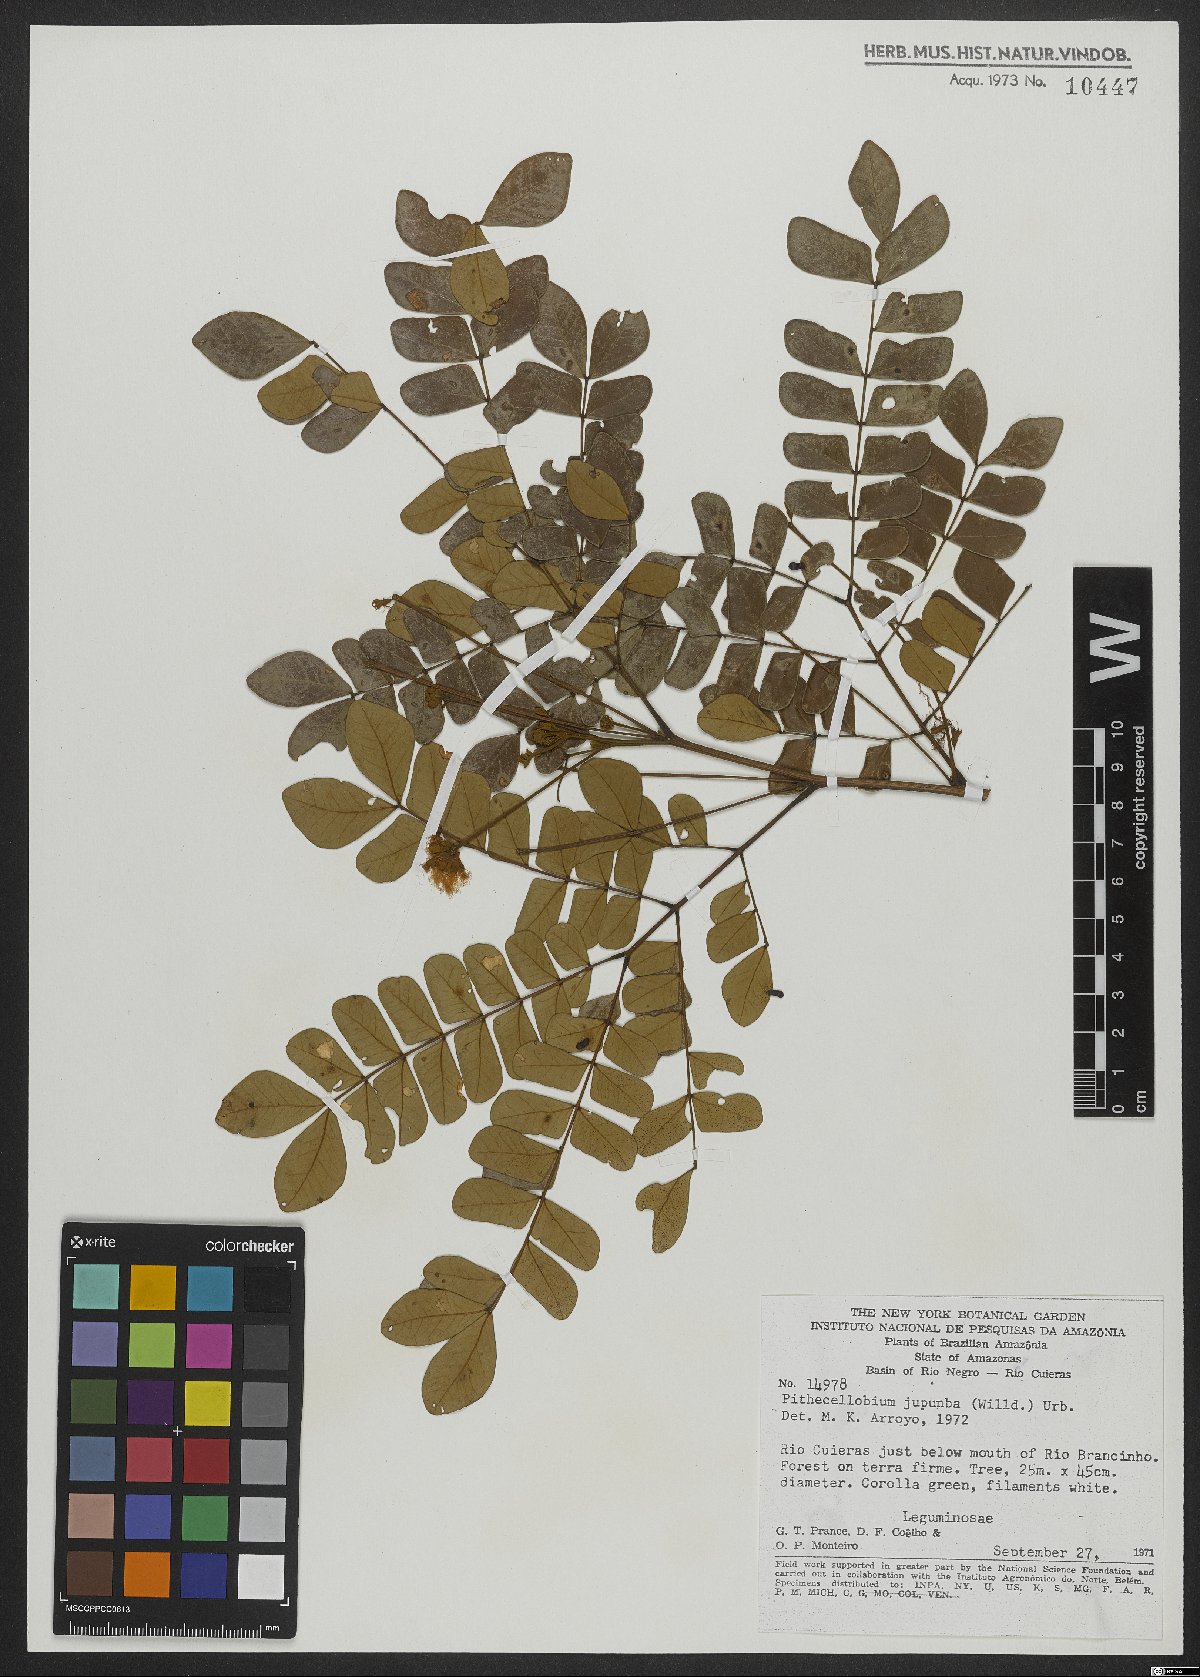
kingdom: Plantae
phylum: Tracheophyta
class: Magnoliopsida
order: Fabales
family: Fabaceae
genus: Jupunba
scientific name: Jupunba trapezifolia
